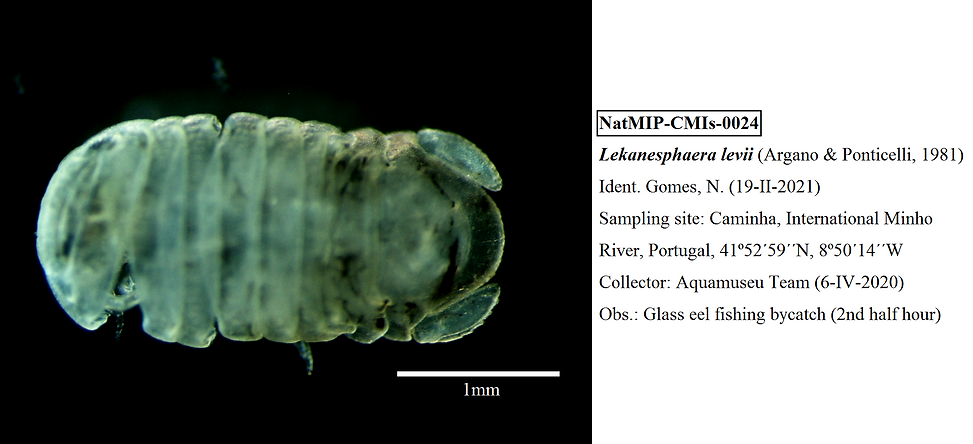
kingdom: Animalia
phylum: Arthropoda
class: Malacostraca
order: Isopoda
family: Sphaeromatidae
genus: Lekanesphaera
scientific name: Lekanesphaera levii
